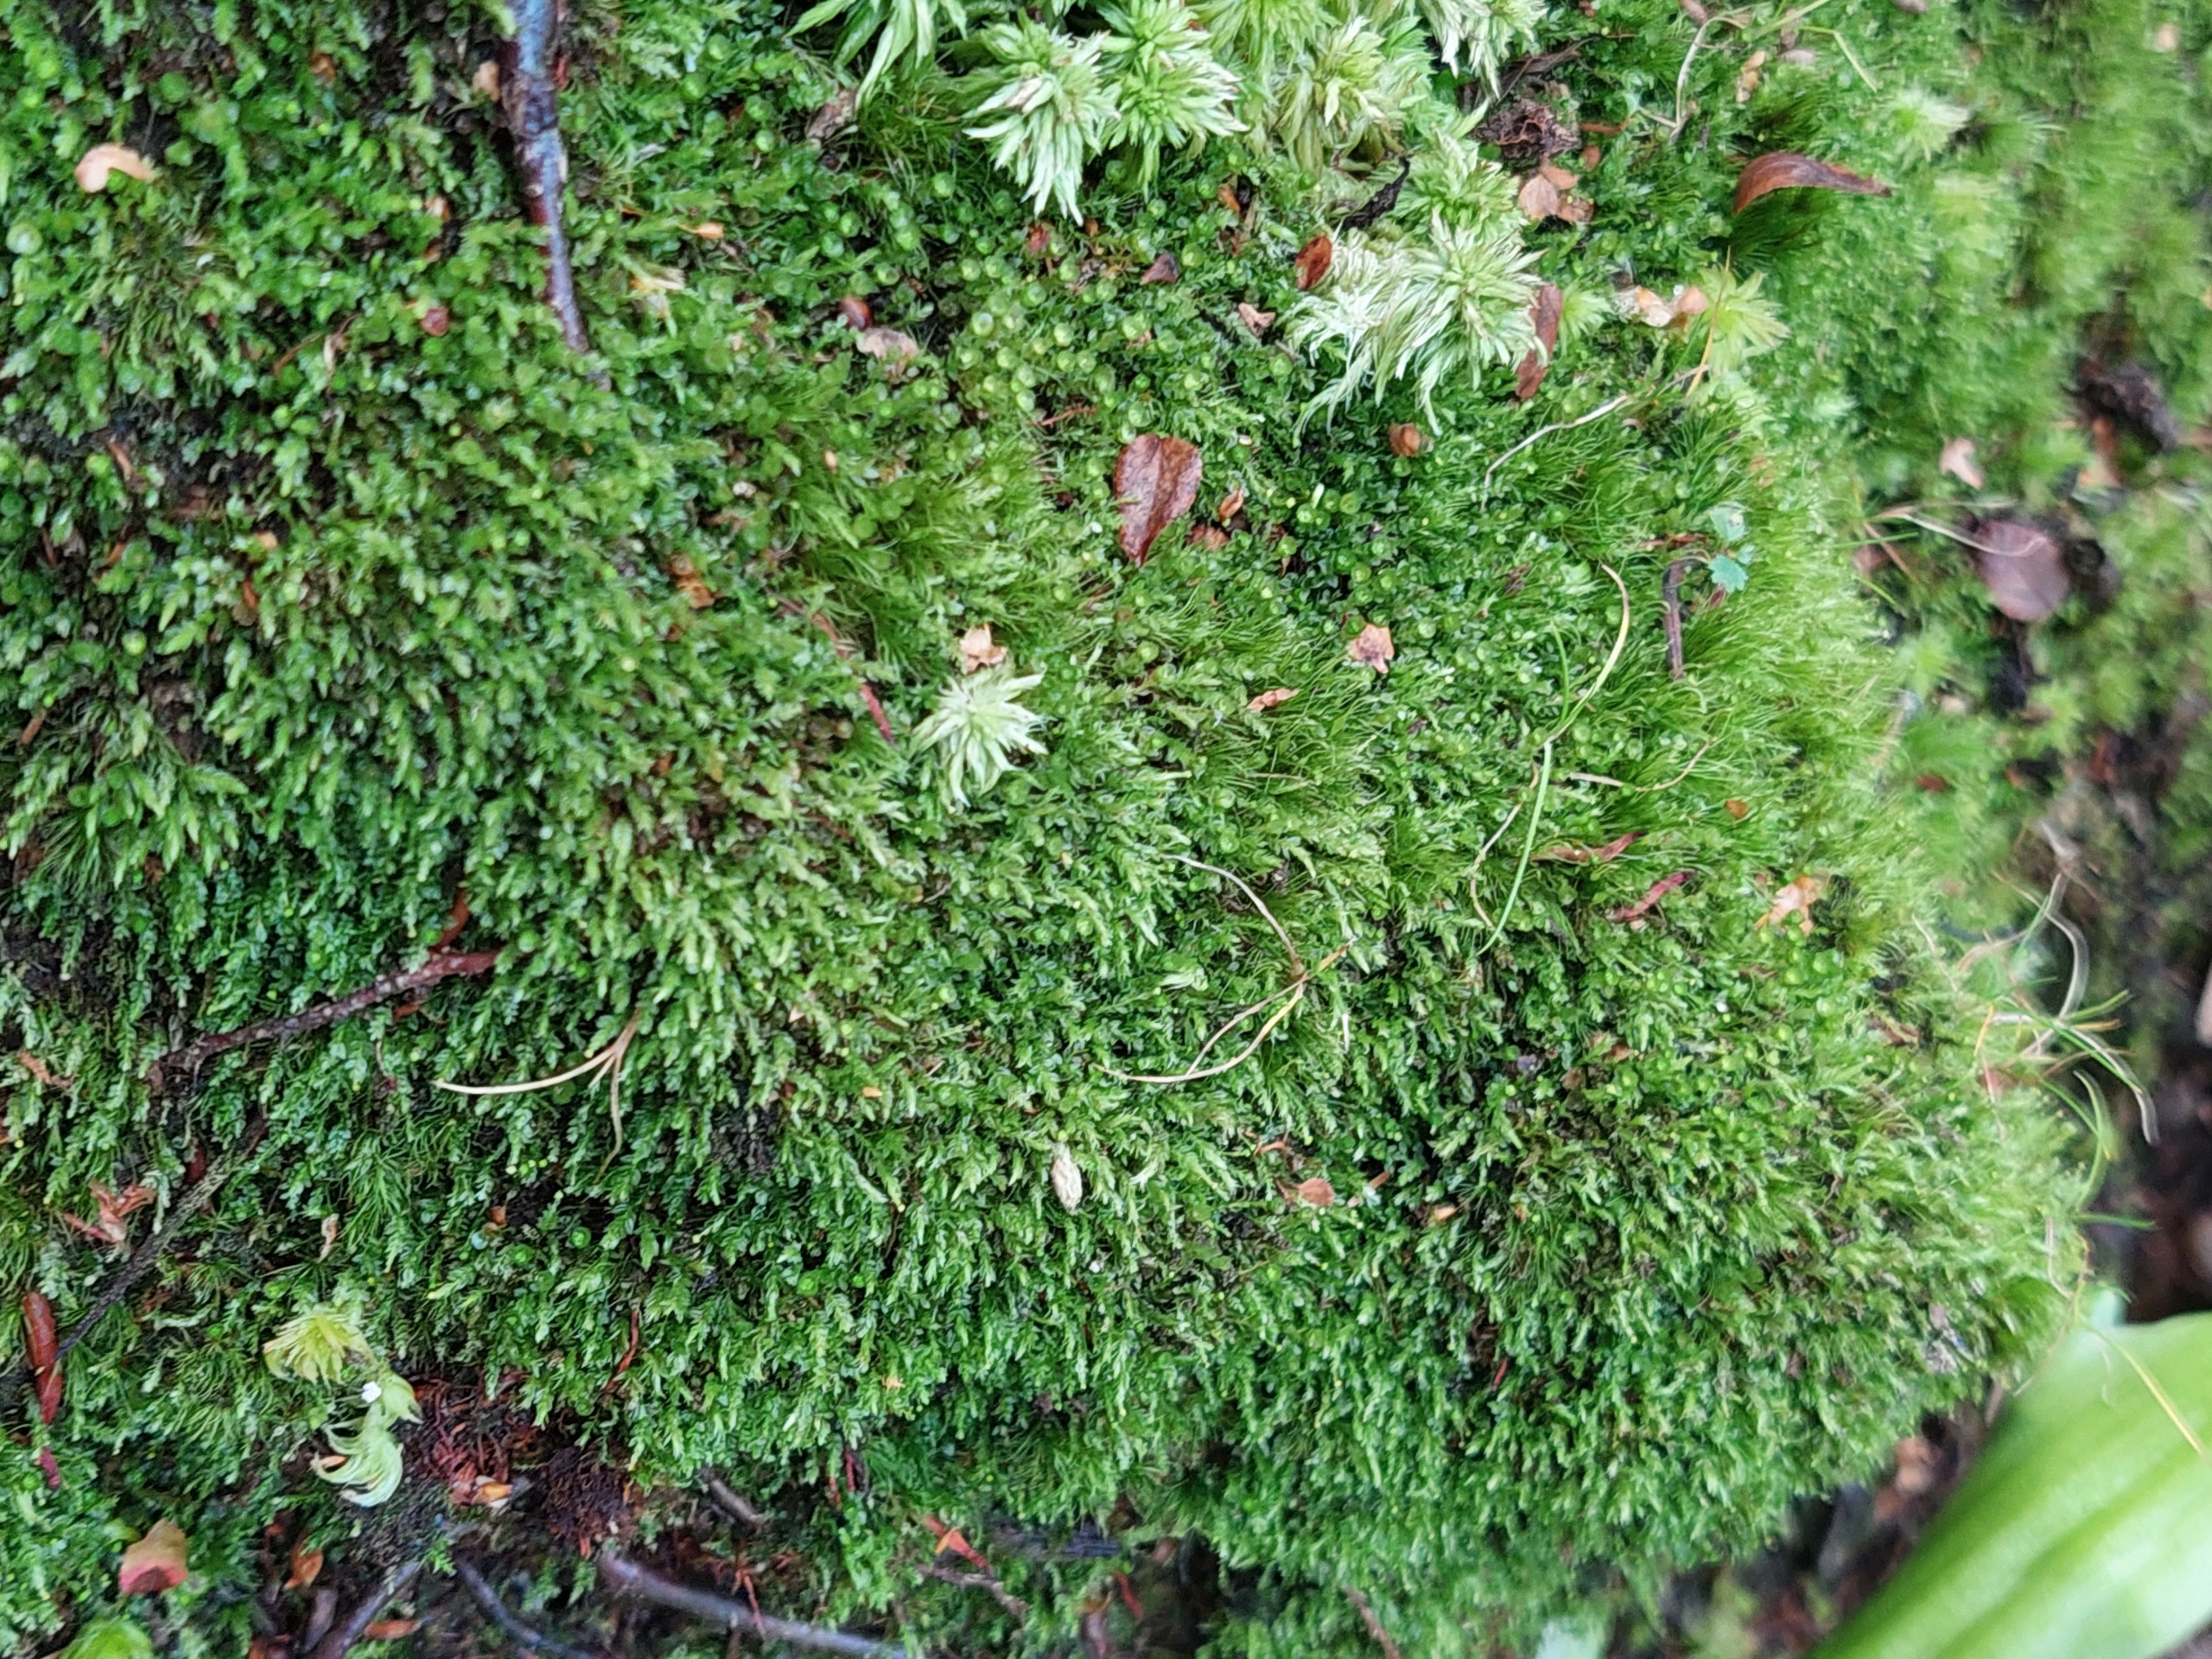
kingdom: Plantae
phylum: Bryophyta
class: Polytrichopsida
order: Tetraphidales
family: Tetraphidaceae
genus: Tetraphis
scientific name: Tetraphis pellucida
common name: Almindelig firtand
